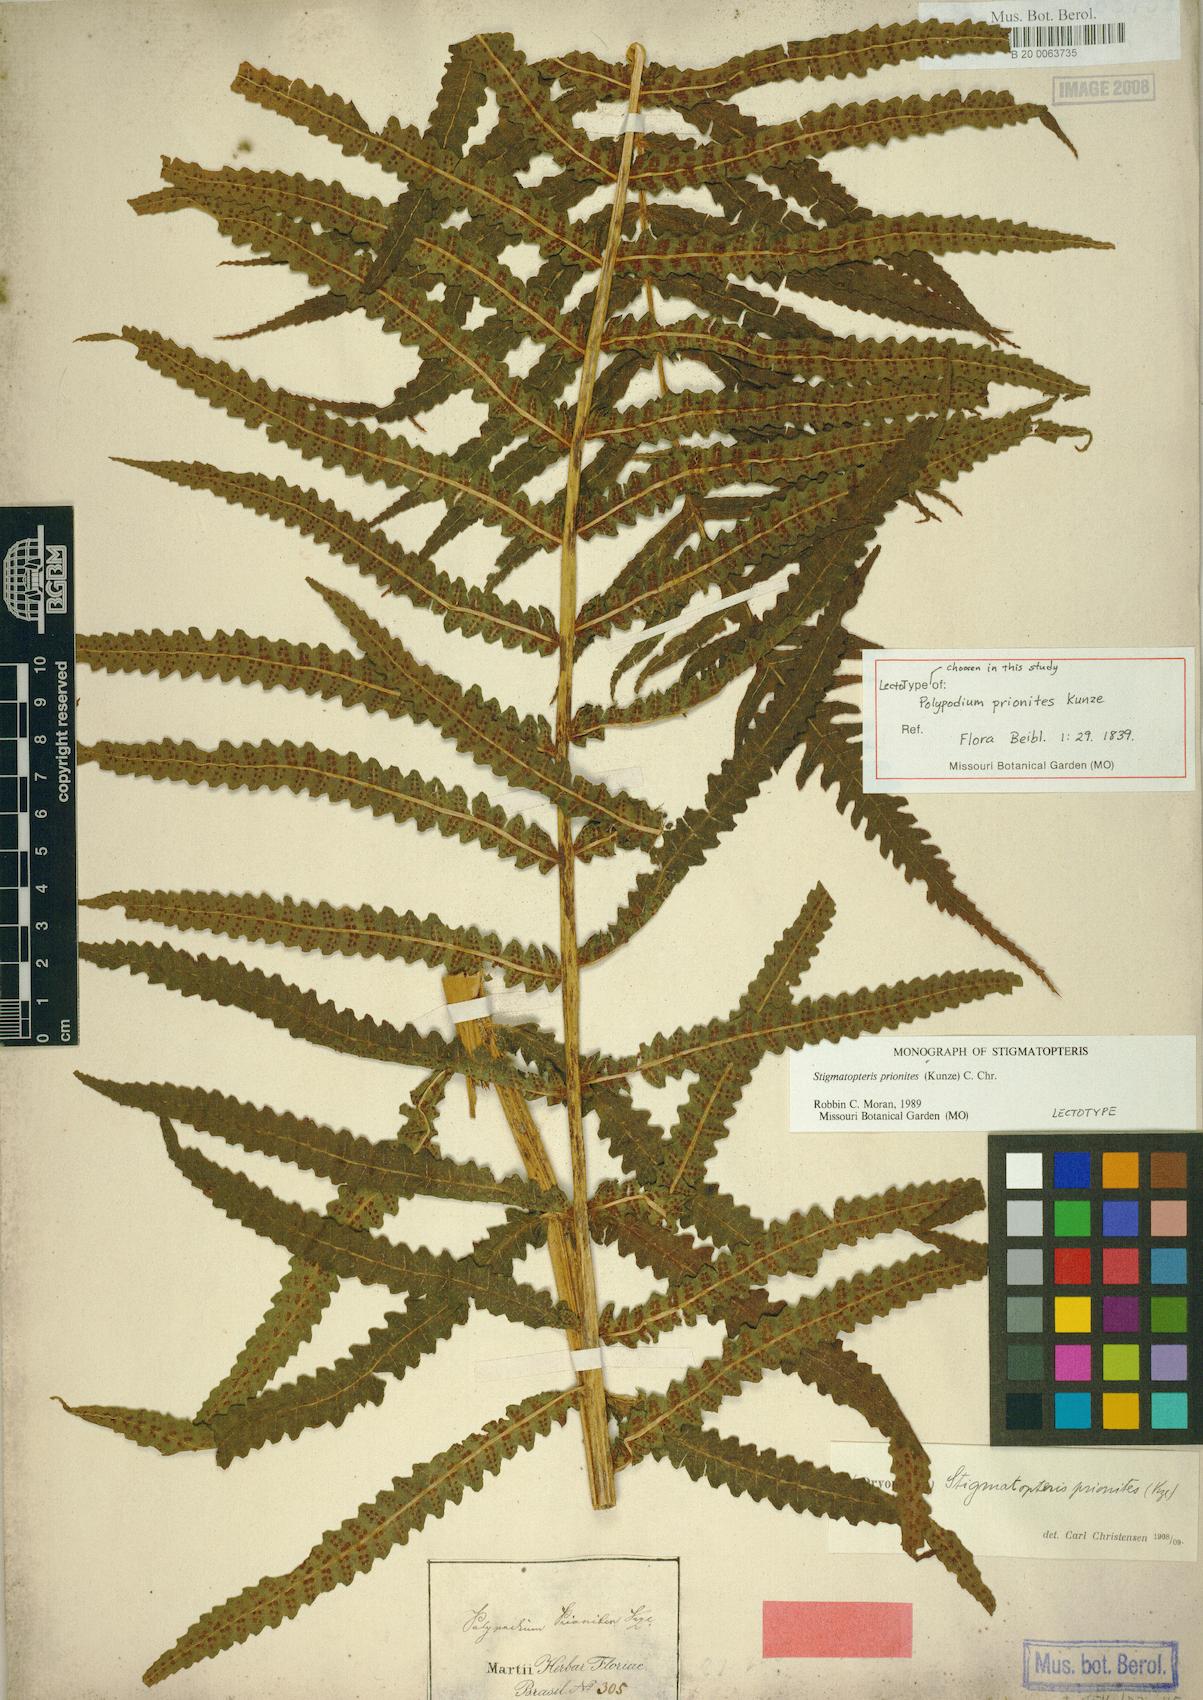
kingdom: Plantae
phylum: Tracheophyta
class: Polypodiopsida
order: Polypodiales
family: Dryopteridaceae
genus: Stigmatopteris
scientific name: Stigmatopteris prionites
